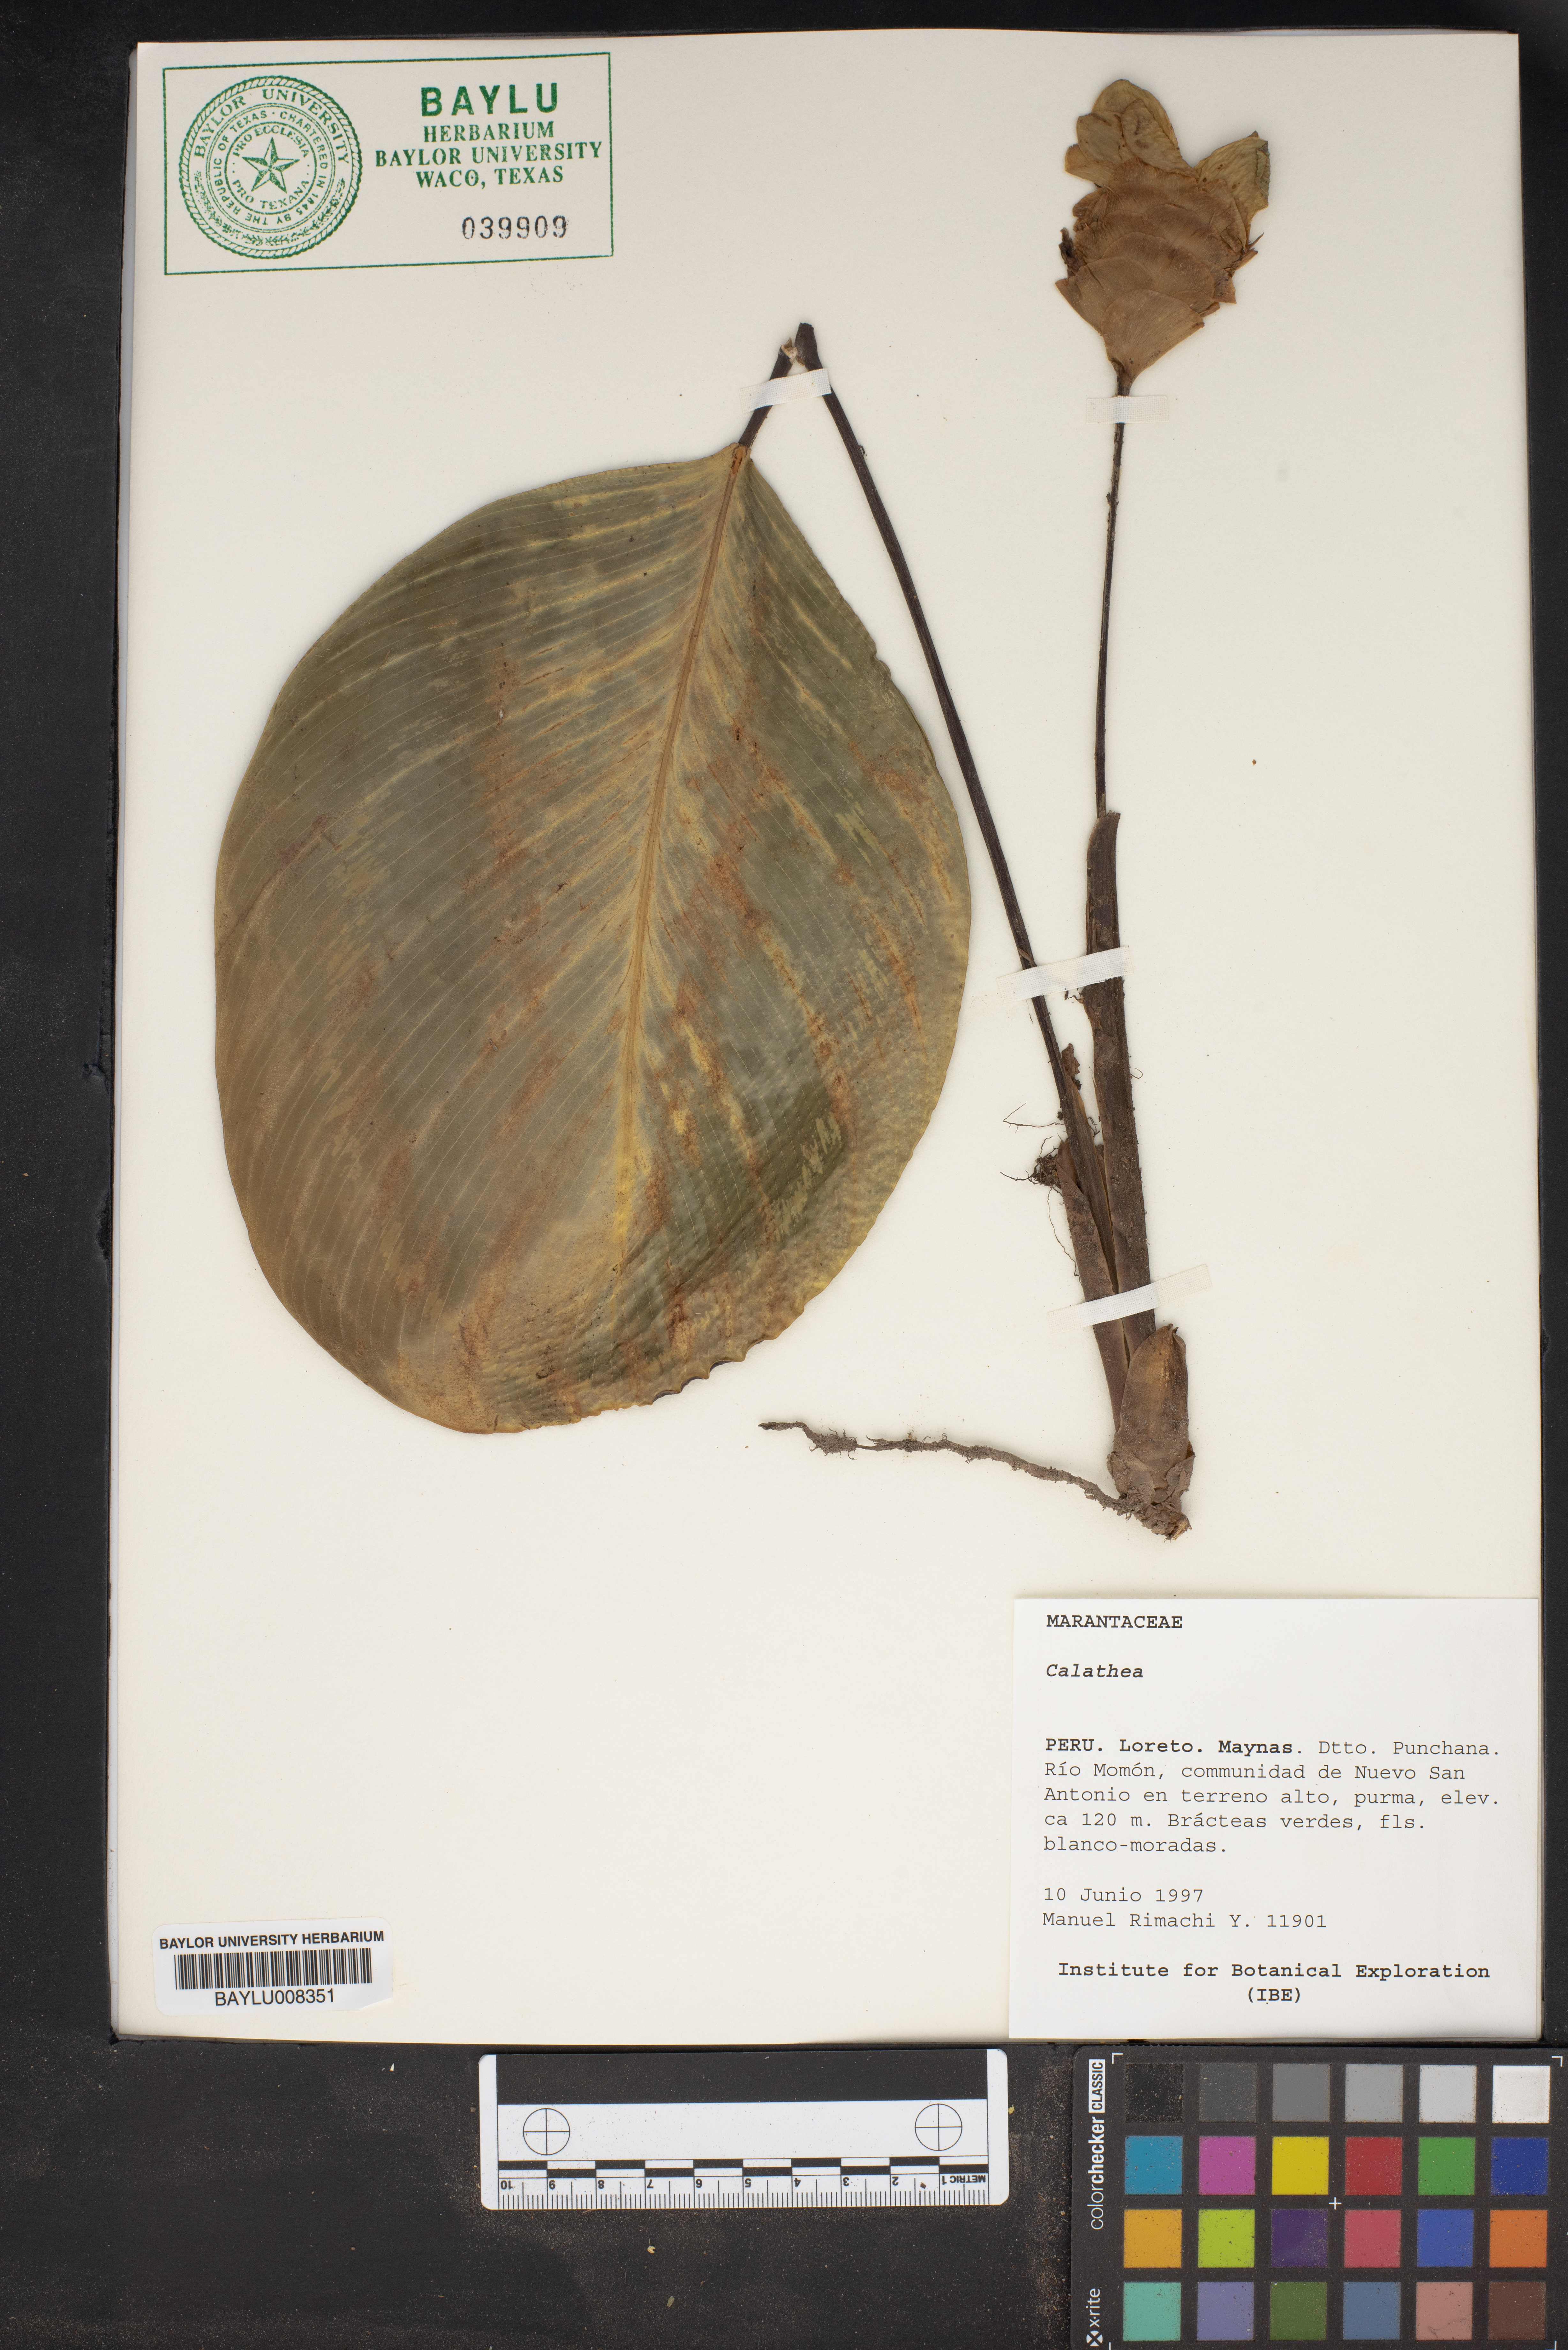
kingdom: Plantae
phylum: Tracheophyta
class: Liliopsida
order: Zingiberales
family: Marantaceae
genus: Calathea
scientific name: Calathea
